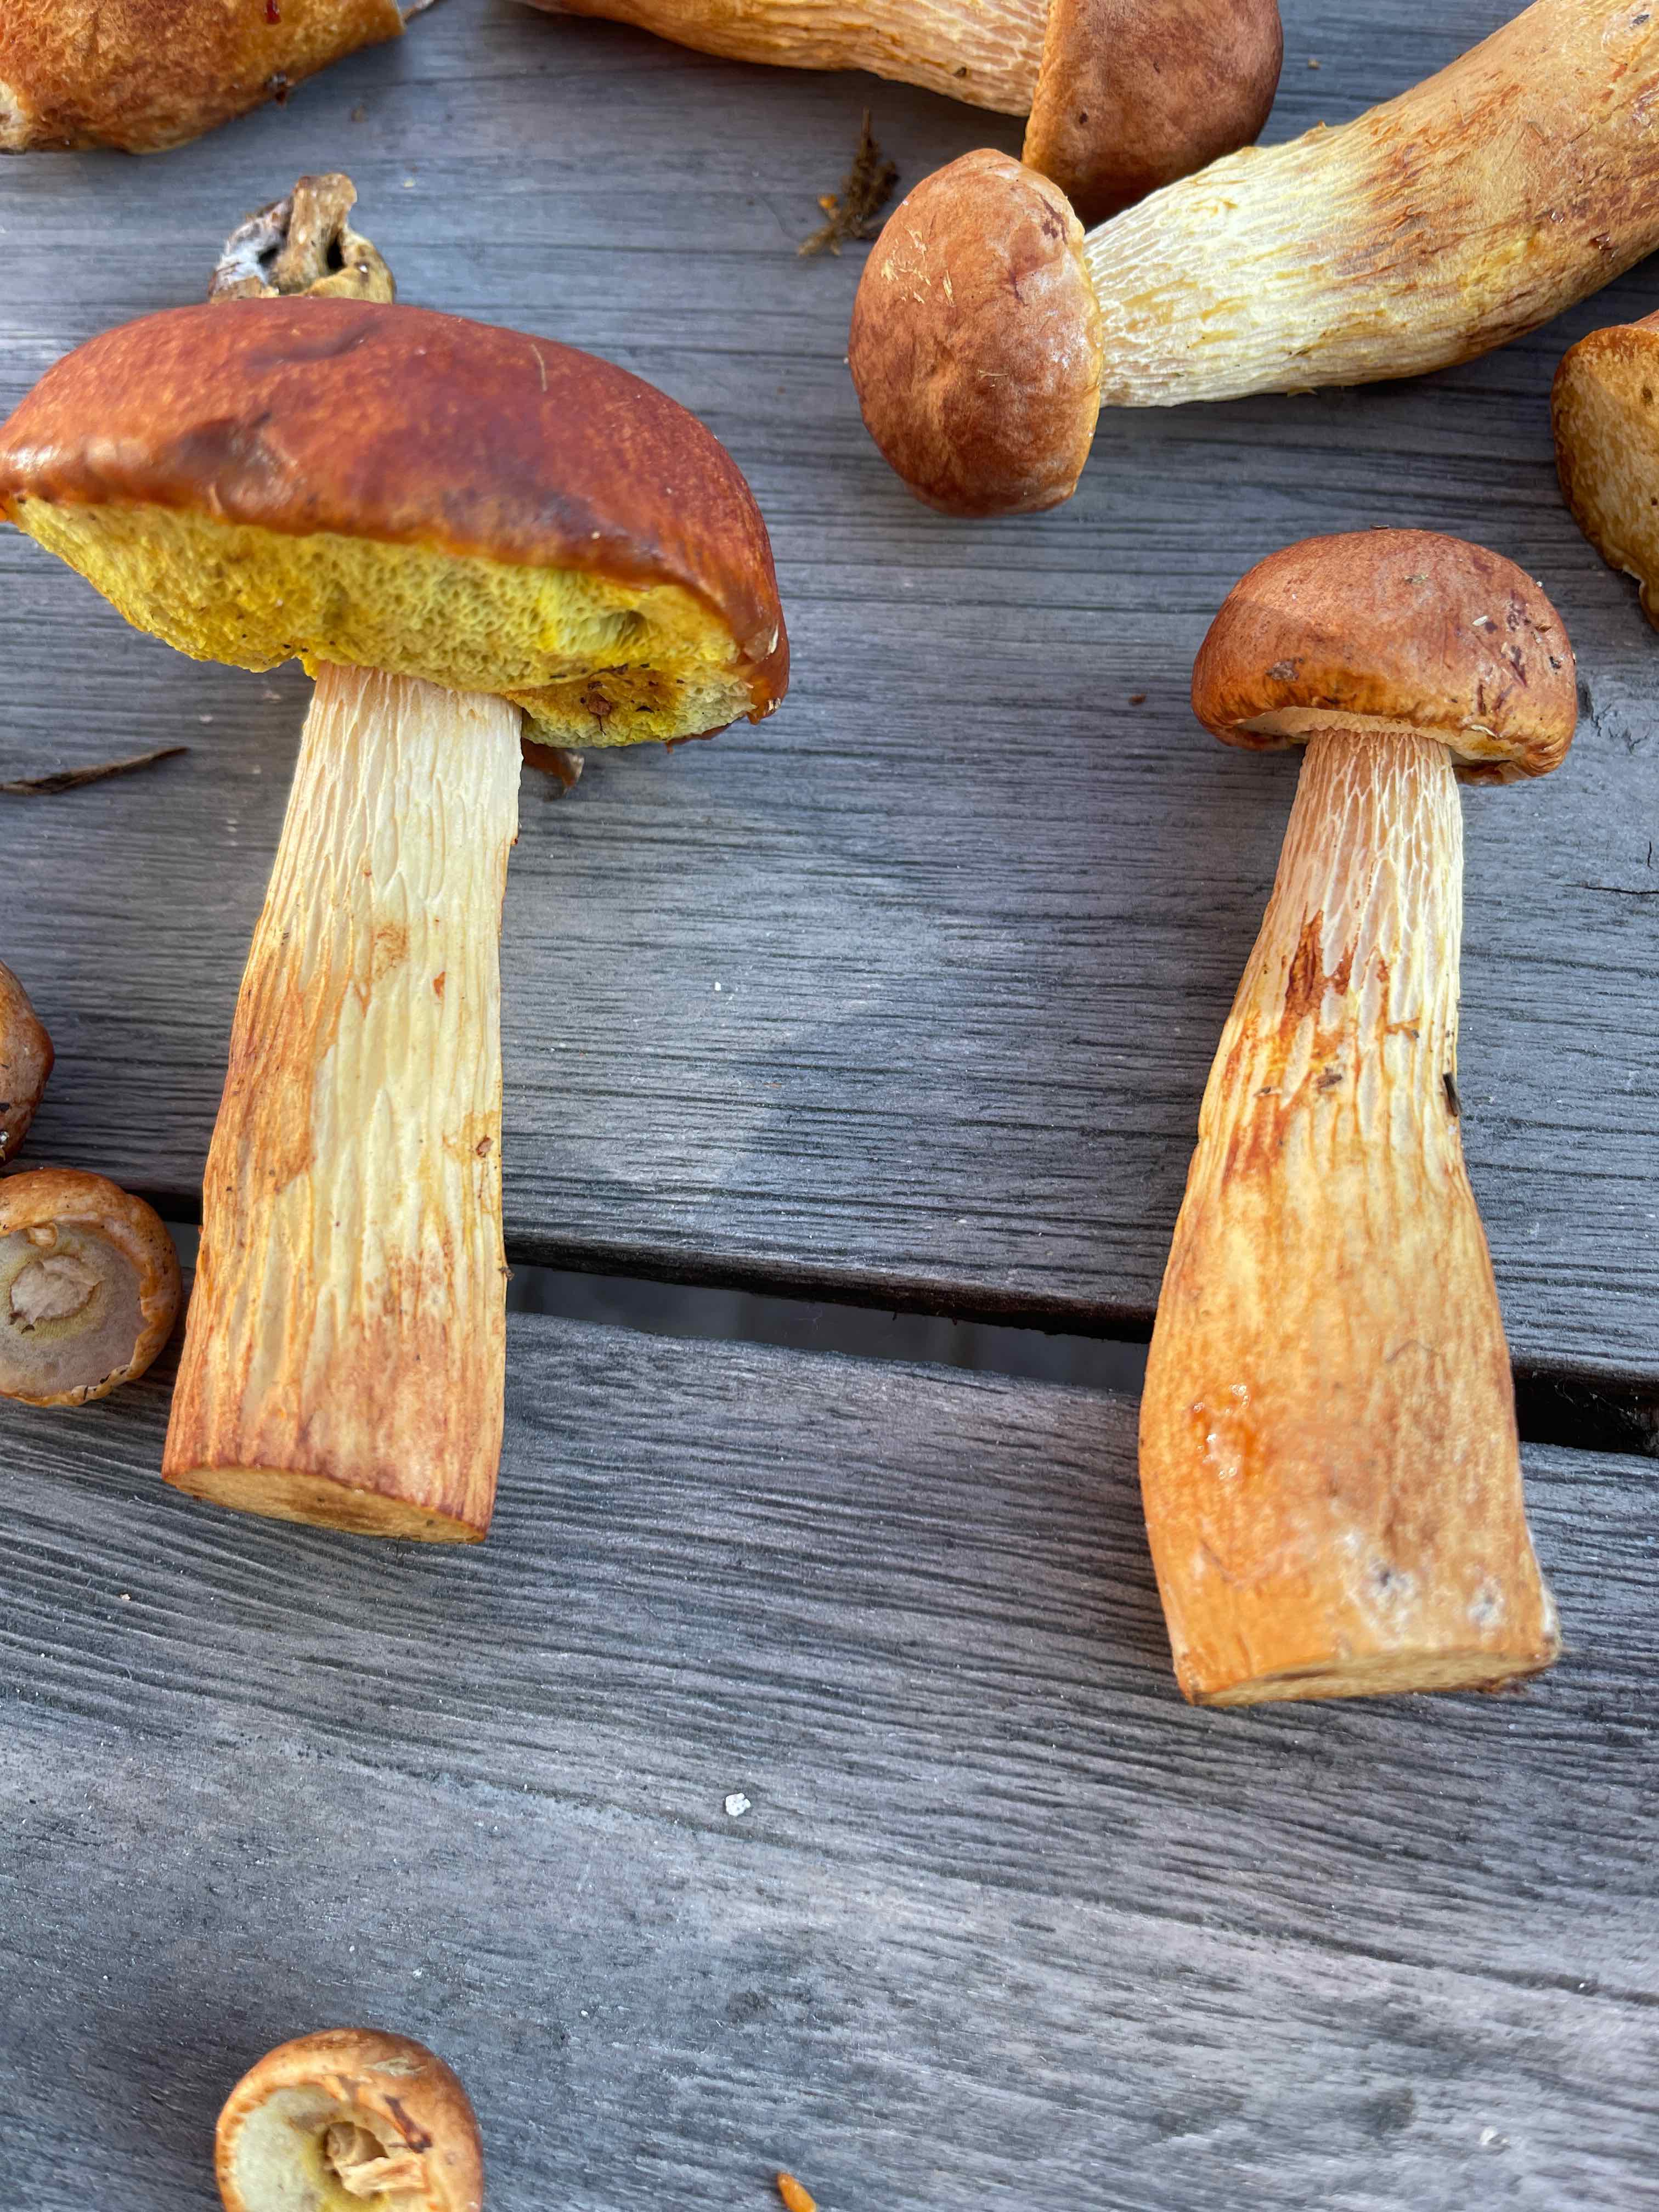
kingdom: Fungi
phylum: Basidiomycota
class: Agaricomycetes
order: Boletales
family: Boletaceae
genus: Aureoboletus
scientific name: Aureoboletus projectellus
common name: ribbestokket rørhat
